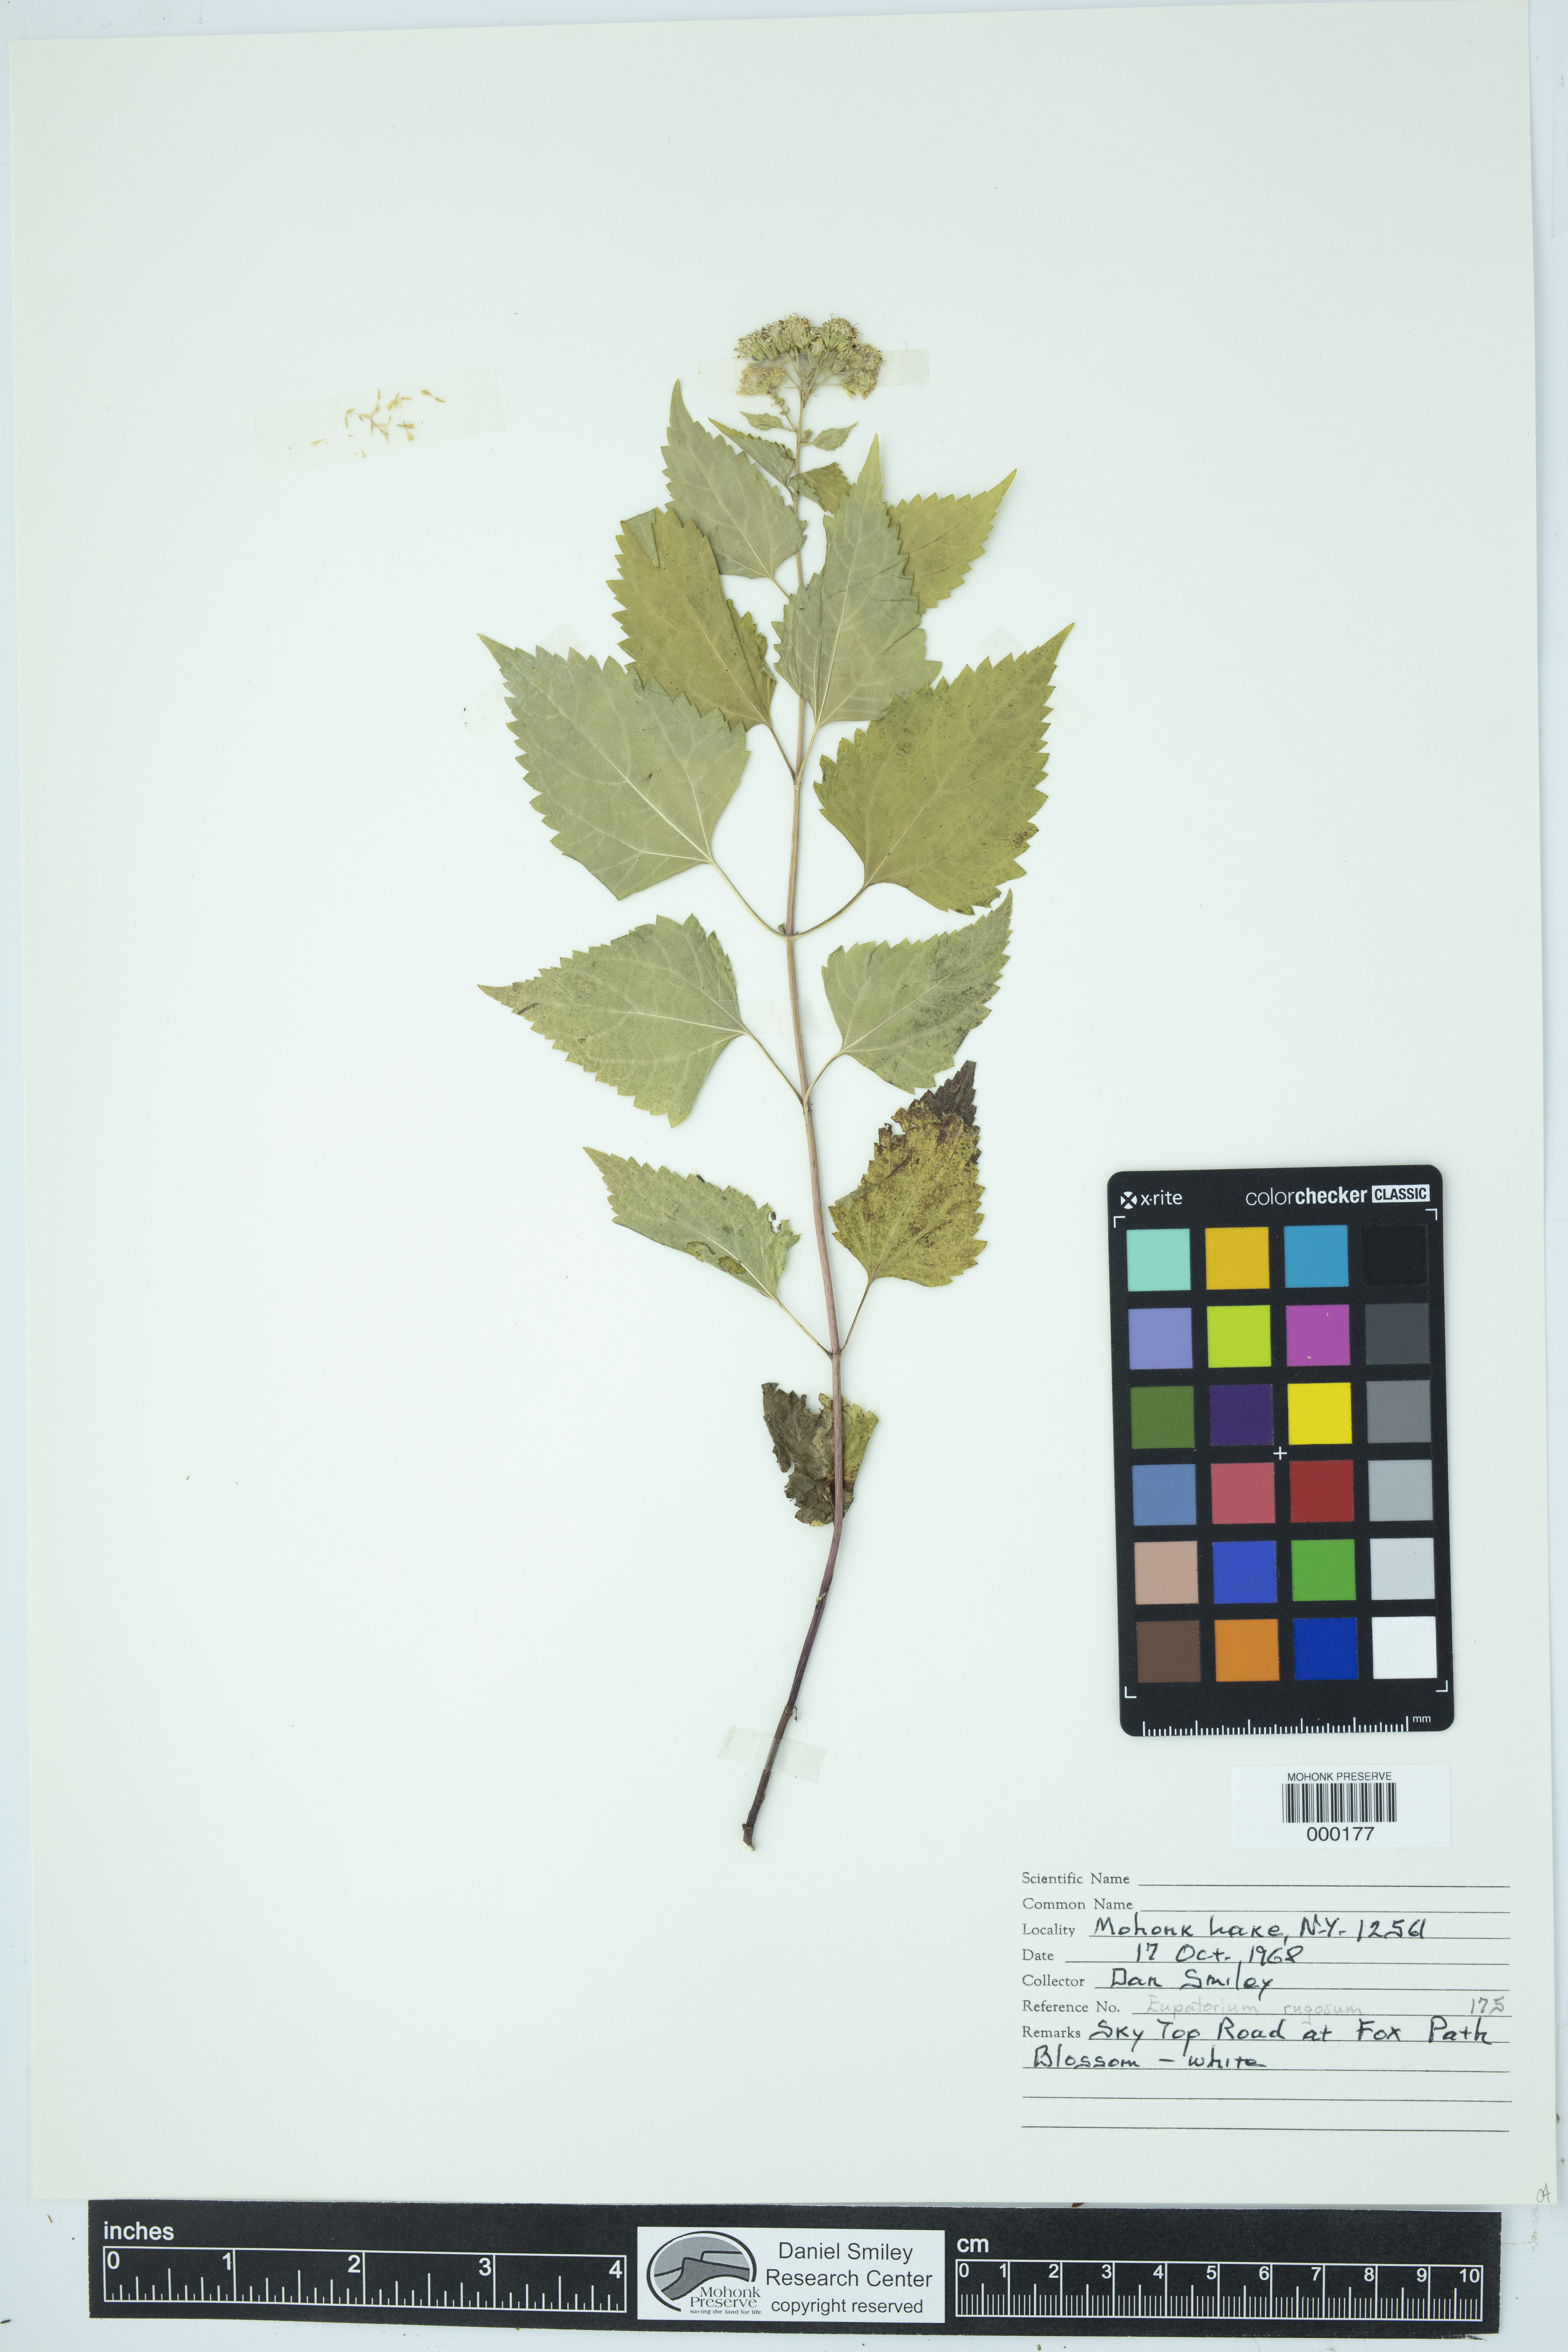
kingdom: Plantae
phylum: Tracheophyta
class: Magnoliopsida
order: Asterales
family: Asteraceae
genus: Ageratina
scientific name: Ageratina altissima
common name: White snakeroot
